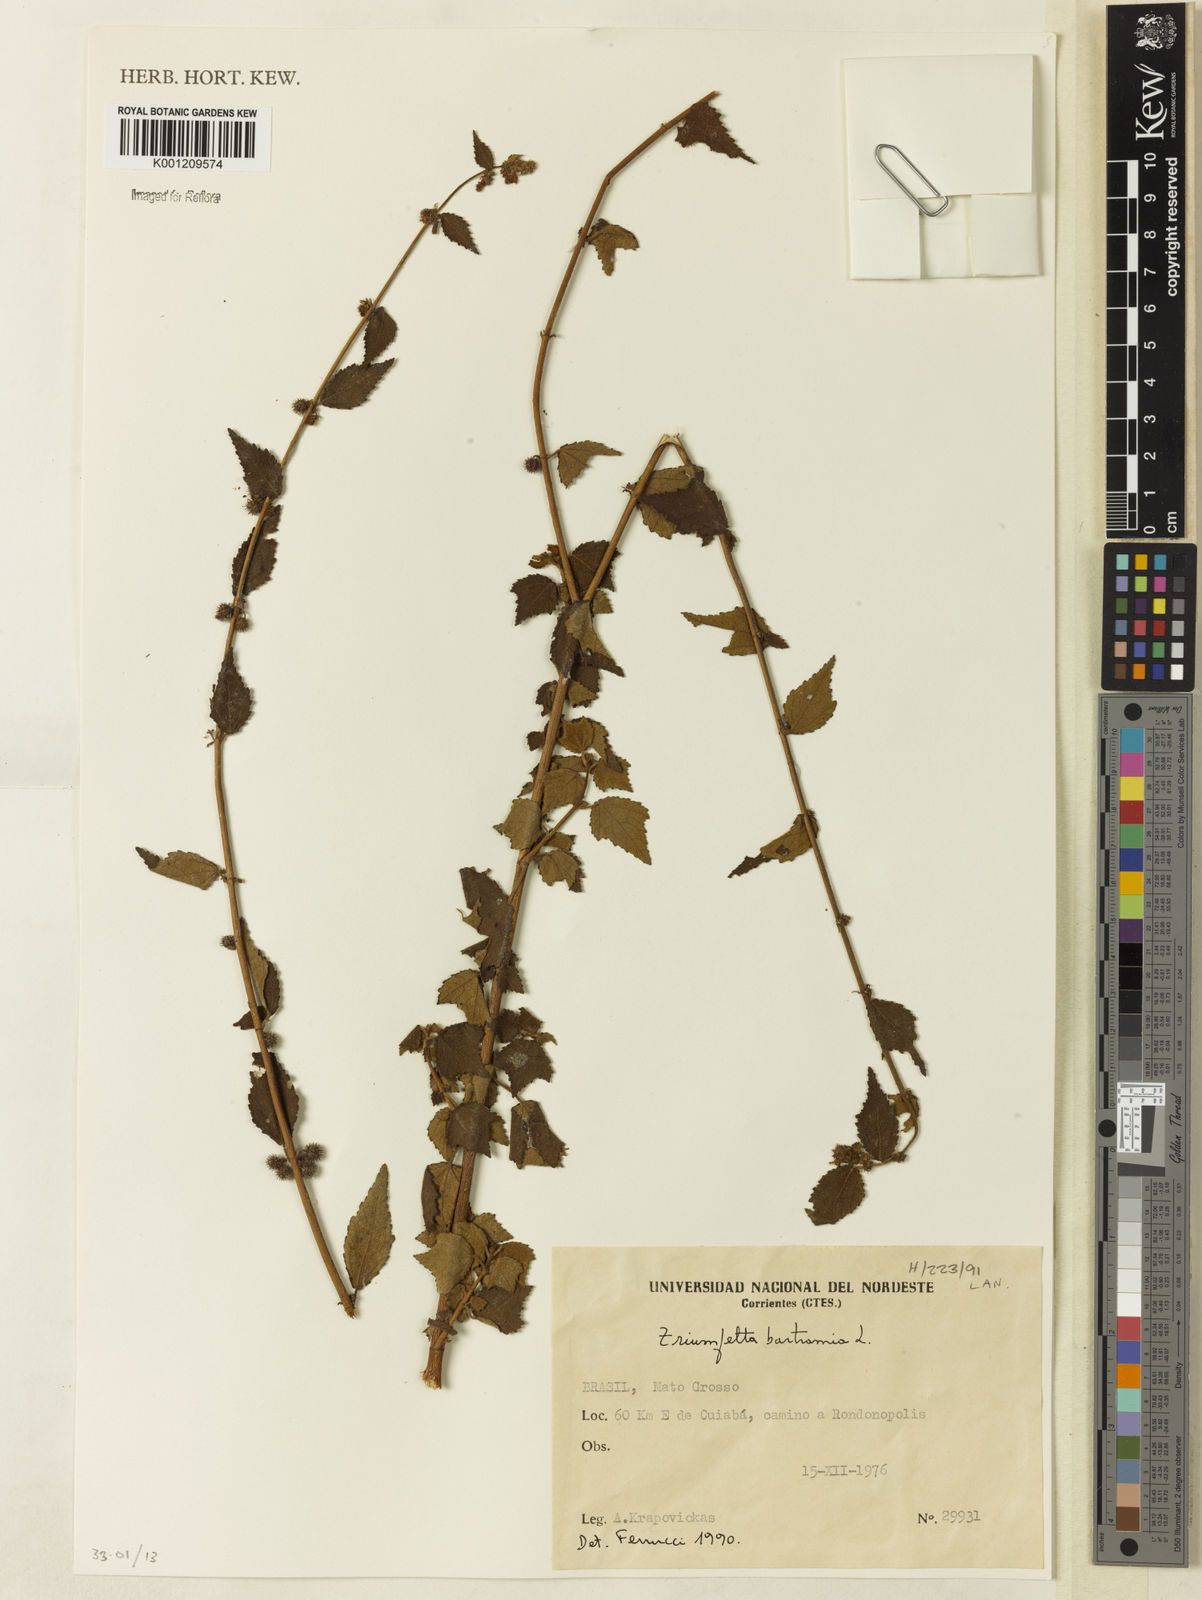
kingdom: Plantae
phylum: Tracheophyta
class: Magnoliopsida
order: Malvales
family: Malvaceae
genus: Triumfetta
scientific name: Triumfetta rhomboidea
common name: Diamond burbark
